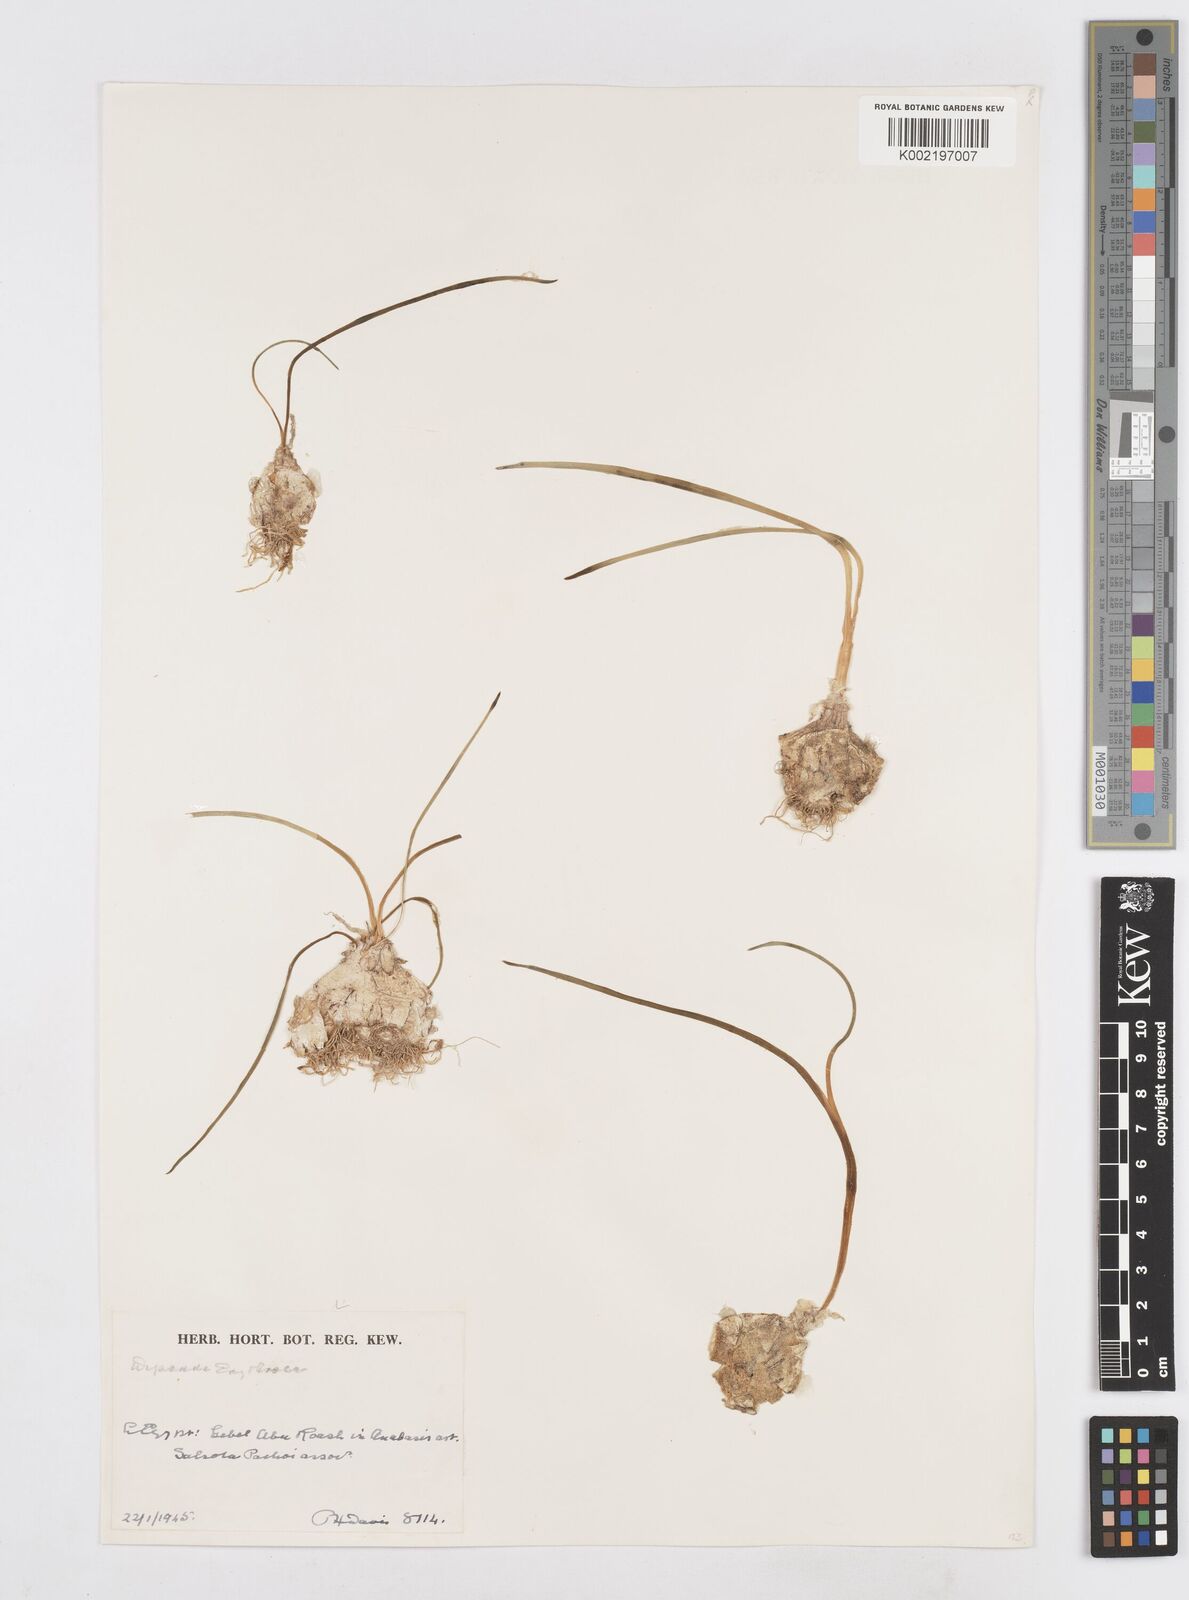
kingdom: Plantae
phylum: Tracheophyta
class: Liliopsida
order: Asparagales
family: Asparagaceae
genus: Dipcadi
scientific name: Dipcadi erythraeum
